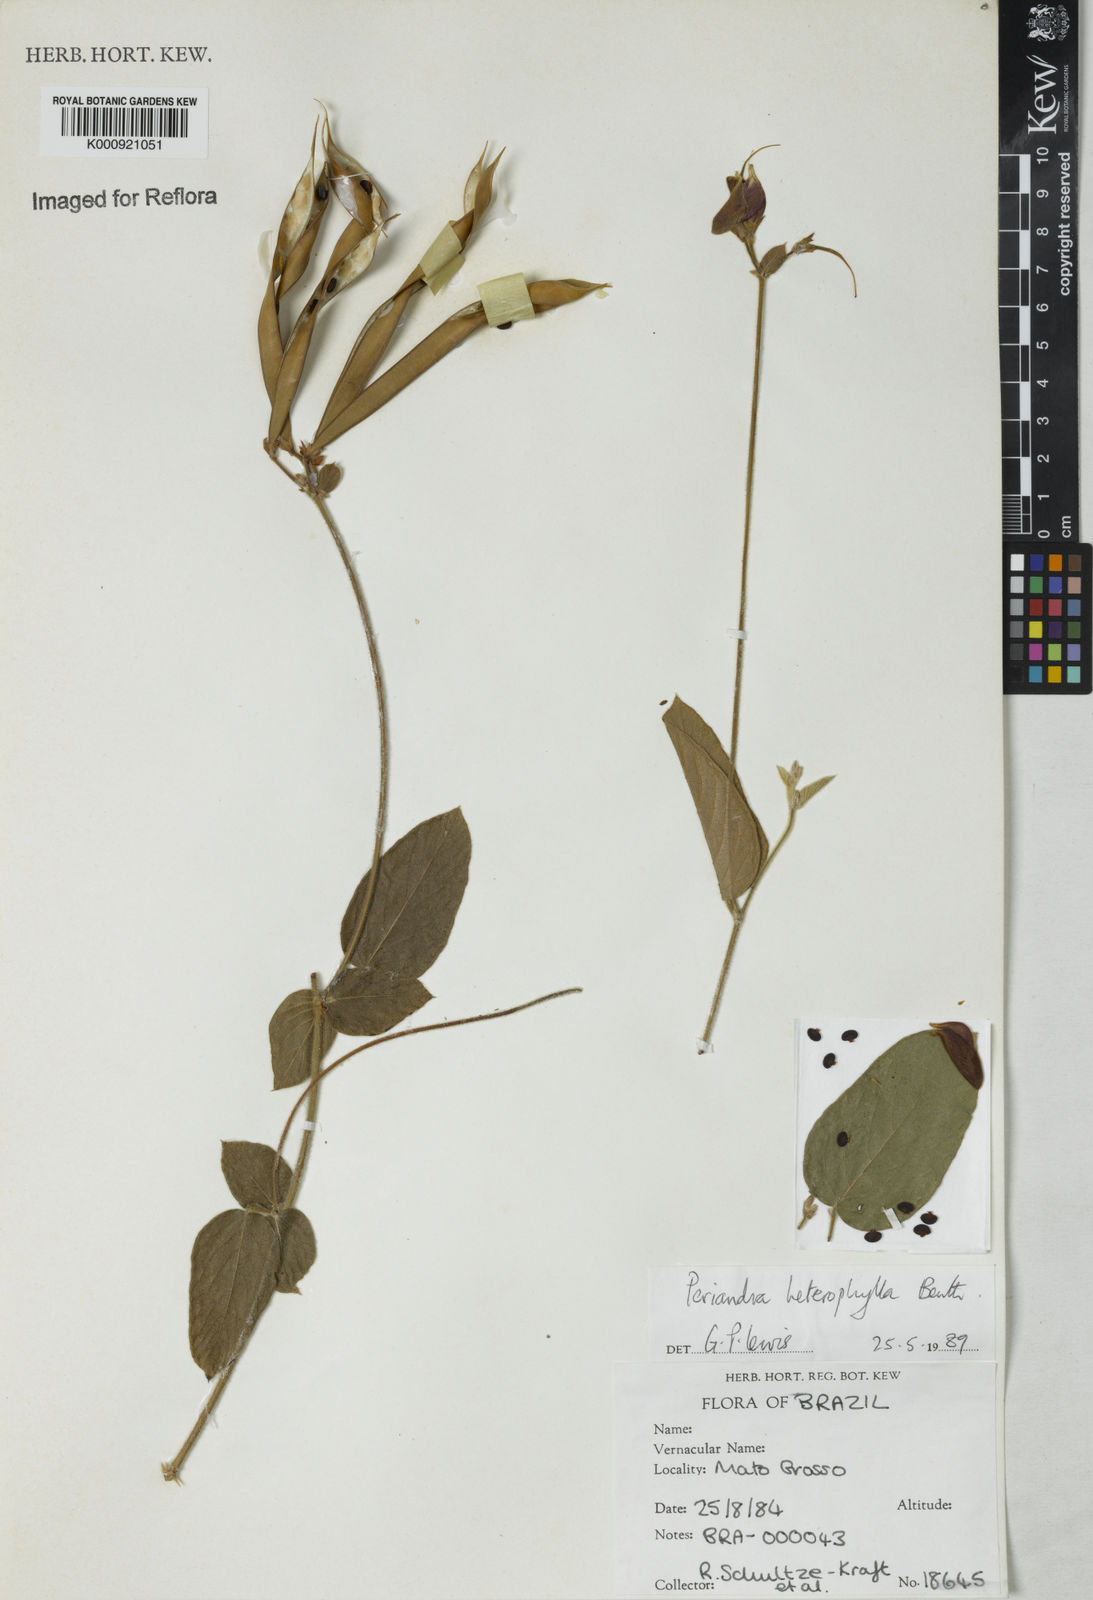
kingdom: Plantae
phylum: Tracheophyta
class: Magnoliopsida
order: Fabales
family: Fabaceae
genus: Periandra
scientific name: Periandra heterophylla
